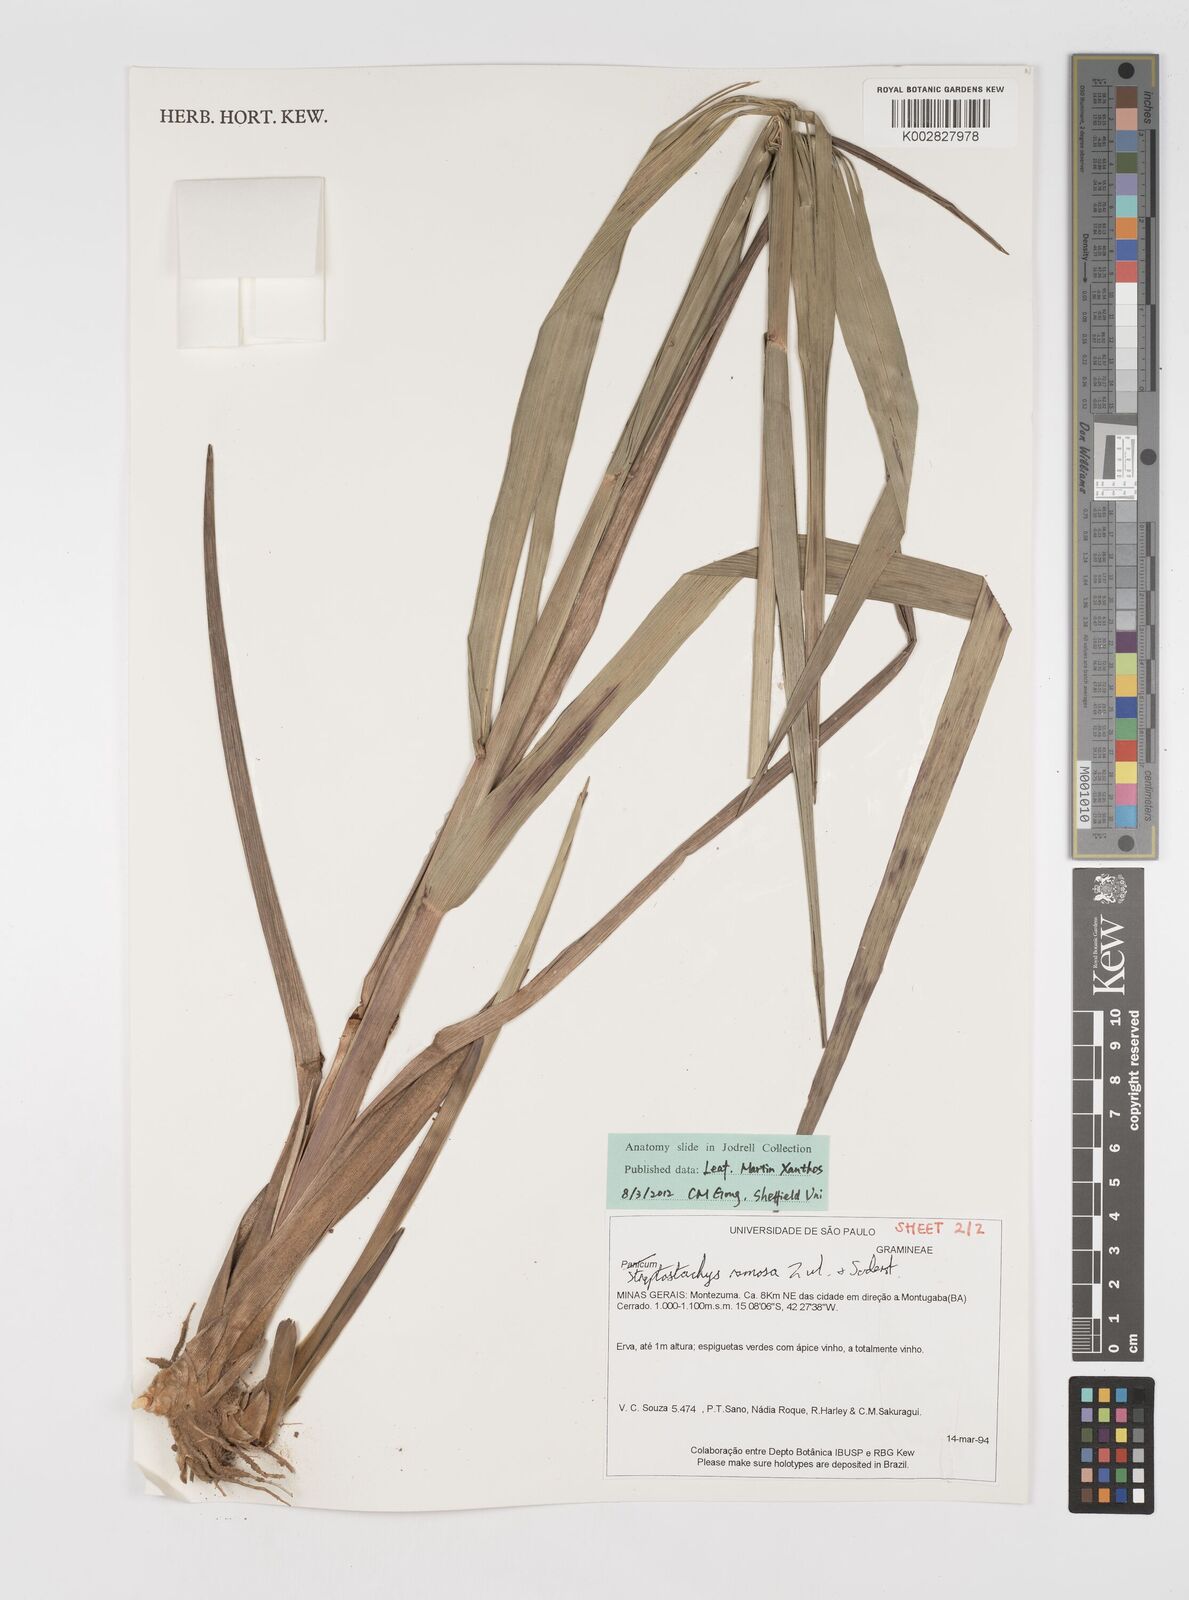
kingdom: Plantae
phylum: Tracheophyta
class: Liliopsida
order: Poales
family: Poaceae
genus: Oncorachis
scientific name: Oncorachis ramosa
